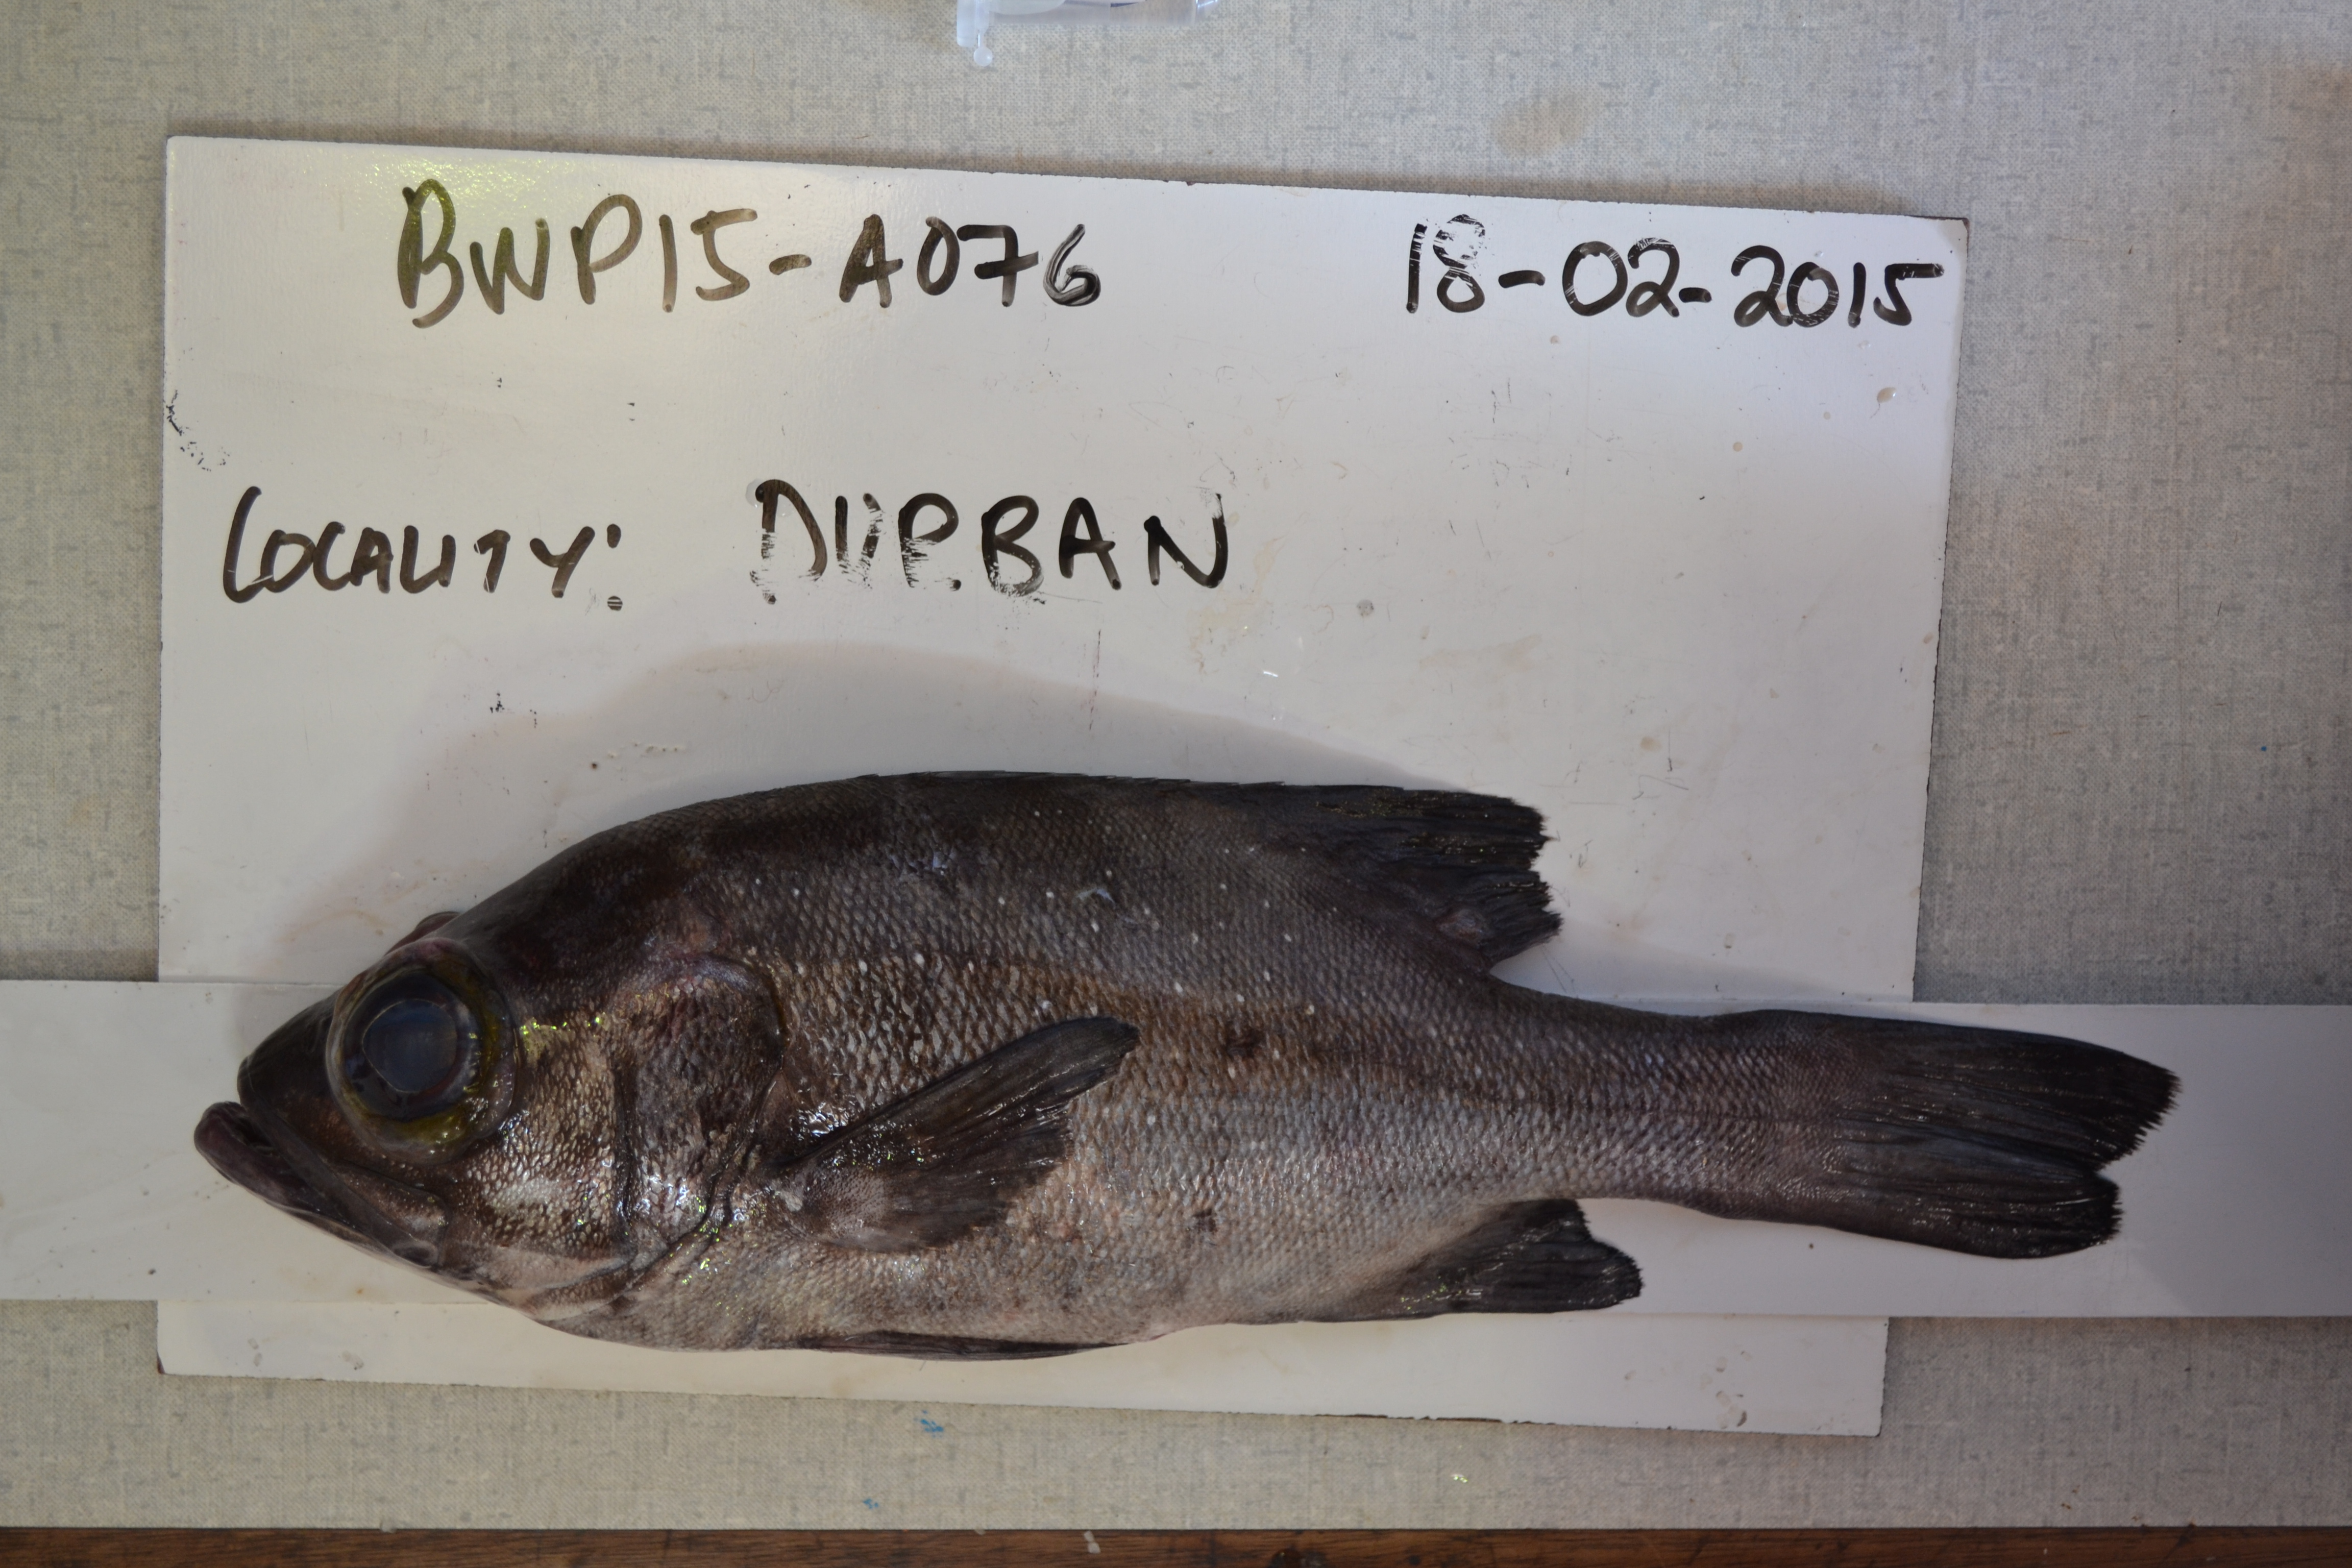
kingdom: Animalia
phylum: Chordata
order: Perciformes
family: Serranidae
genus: Aethaloperca
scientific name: Aethaloperca rogaa
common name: Redmouth grouper
